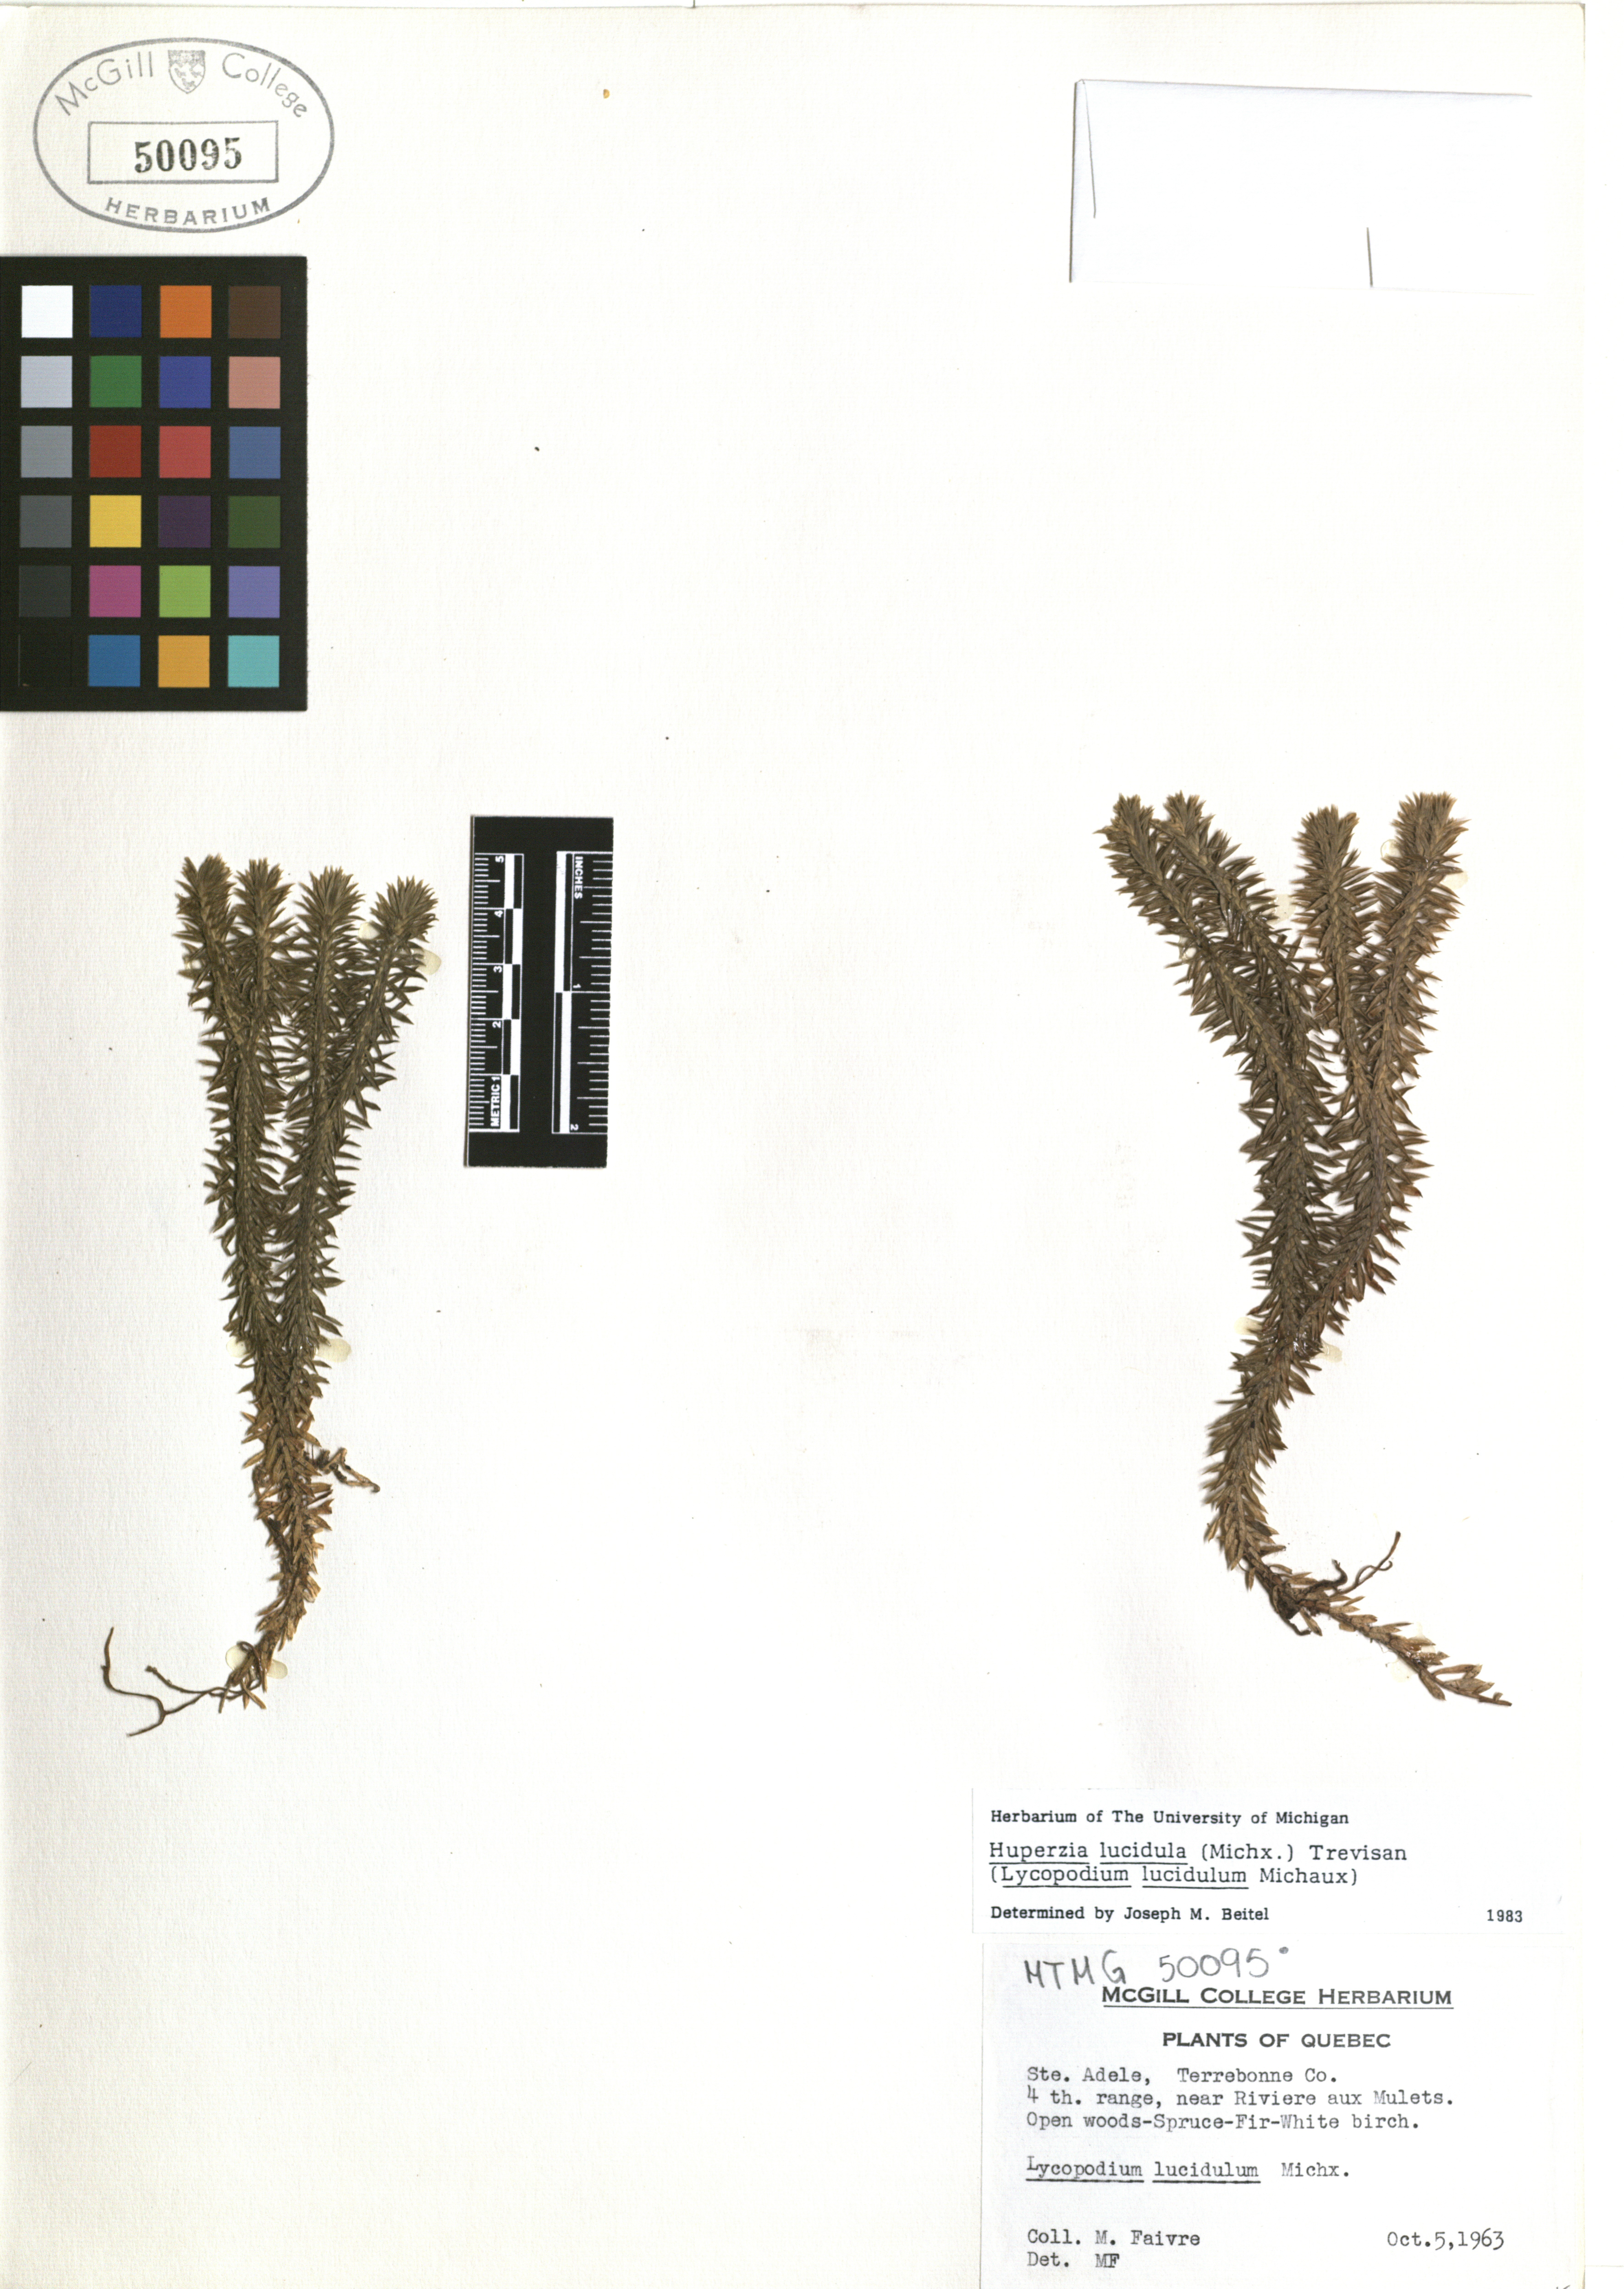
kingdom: Plantae
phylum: Tracheophyta
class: Lycopodiopsida
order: Lycopodiales
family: Lycopodiaceae
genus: Huperzia
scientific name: Huperzia lucidula
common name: Shining clubmoss
